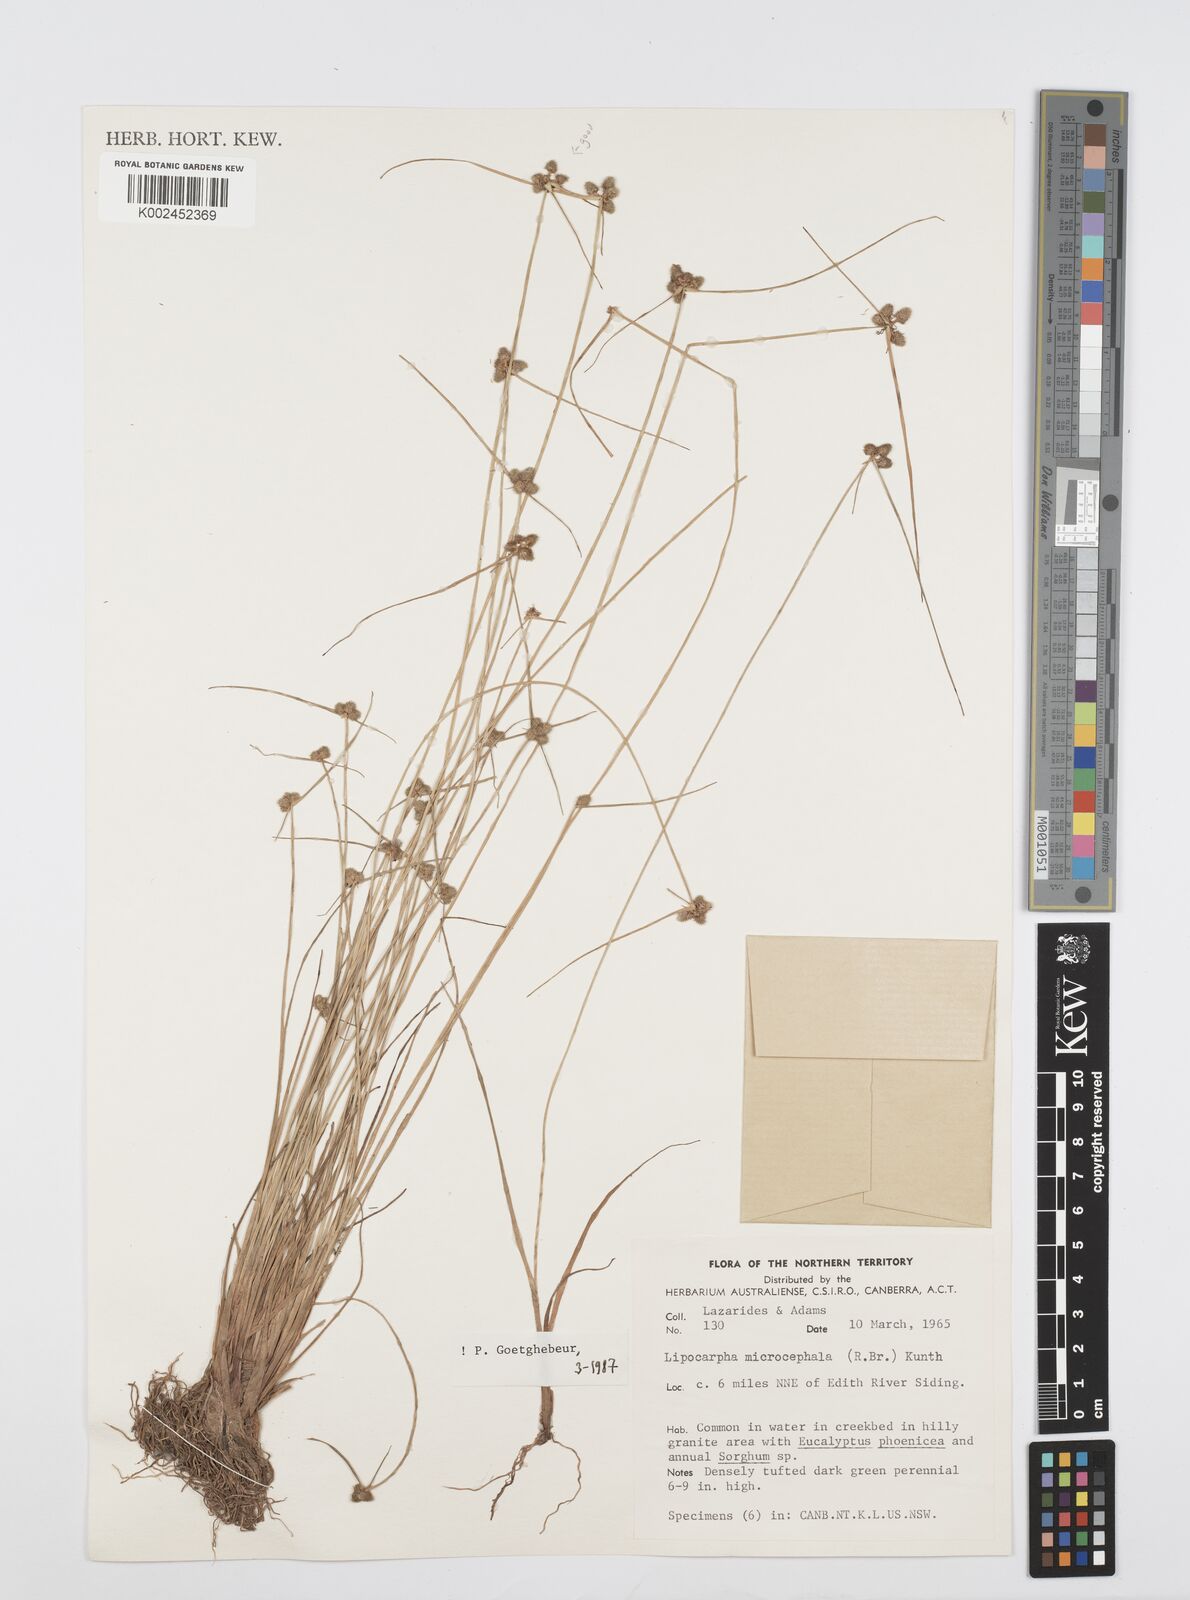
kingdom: Plantae
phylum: Tracheophyta
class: Liliopsida
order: Poales
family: Cyperaceae
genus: Cyperus
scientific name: Cyperus microcephalus
